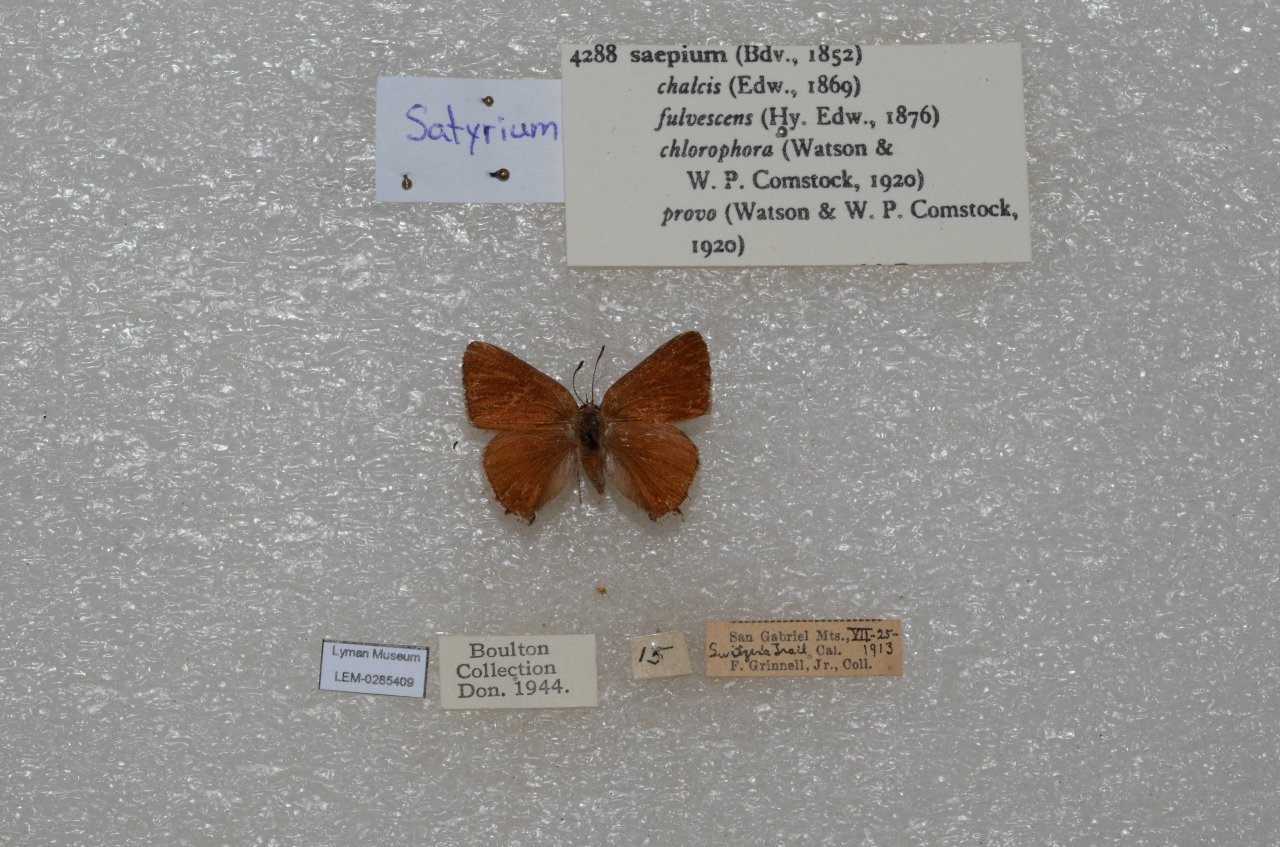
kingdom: Animalia
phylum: Arthropoda
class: Insecta
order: Lepidoptera
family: Lycaenidae
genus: Strymon
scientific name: Strymon saepium
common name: Hedgerow Hairstreak
